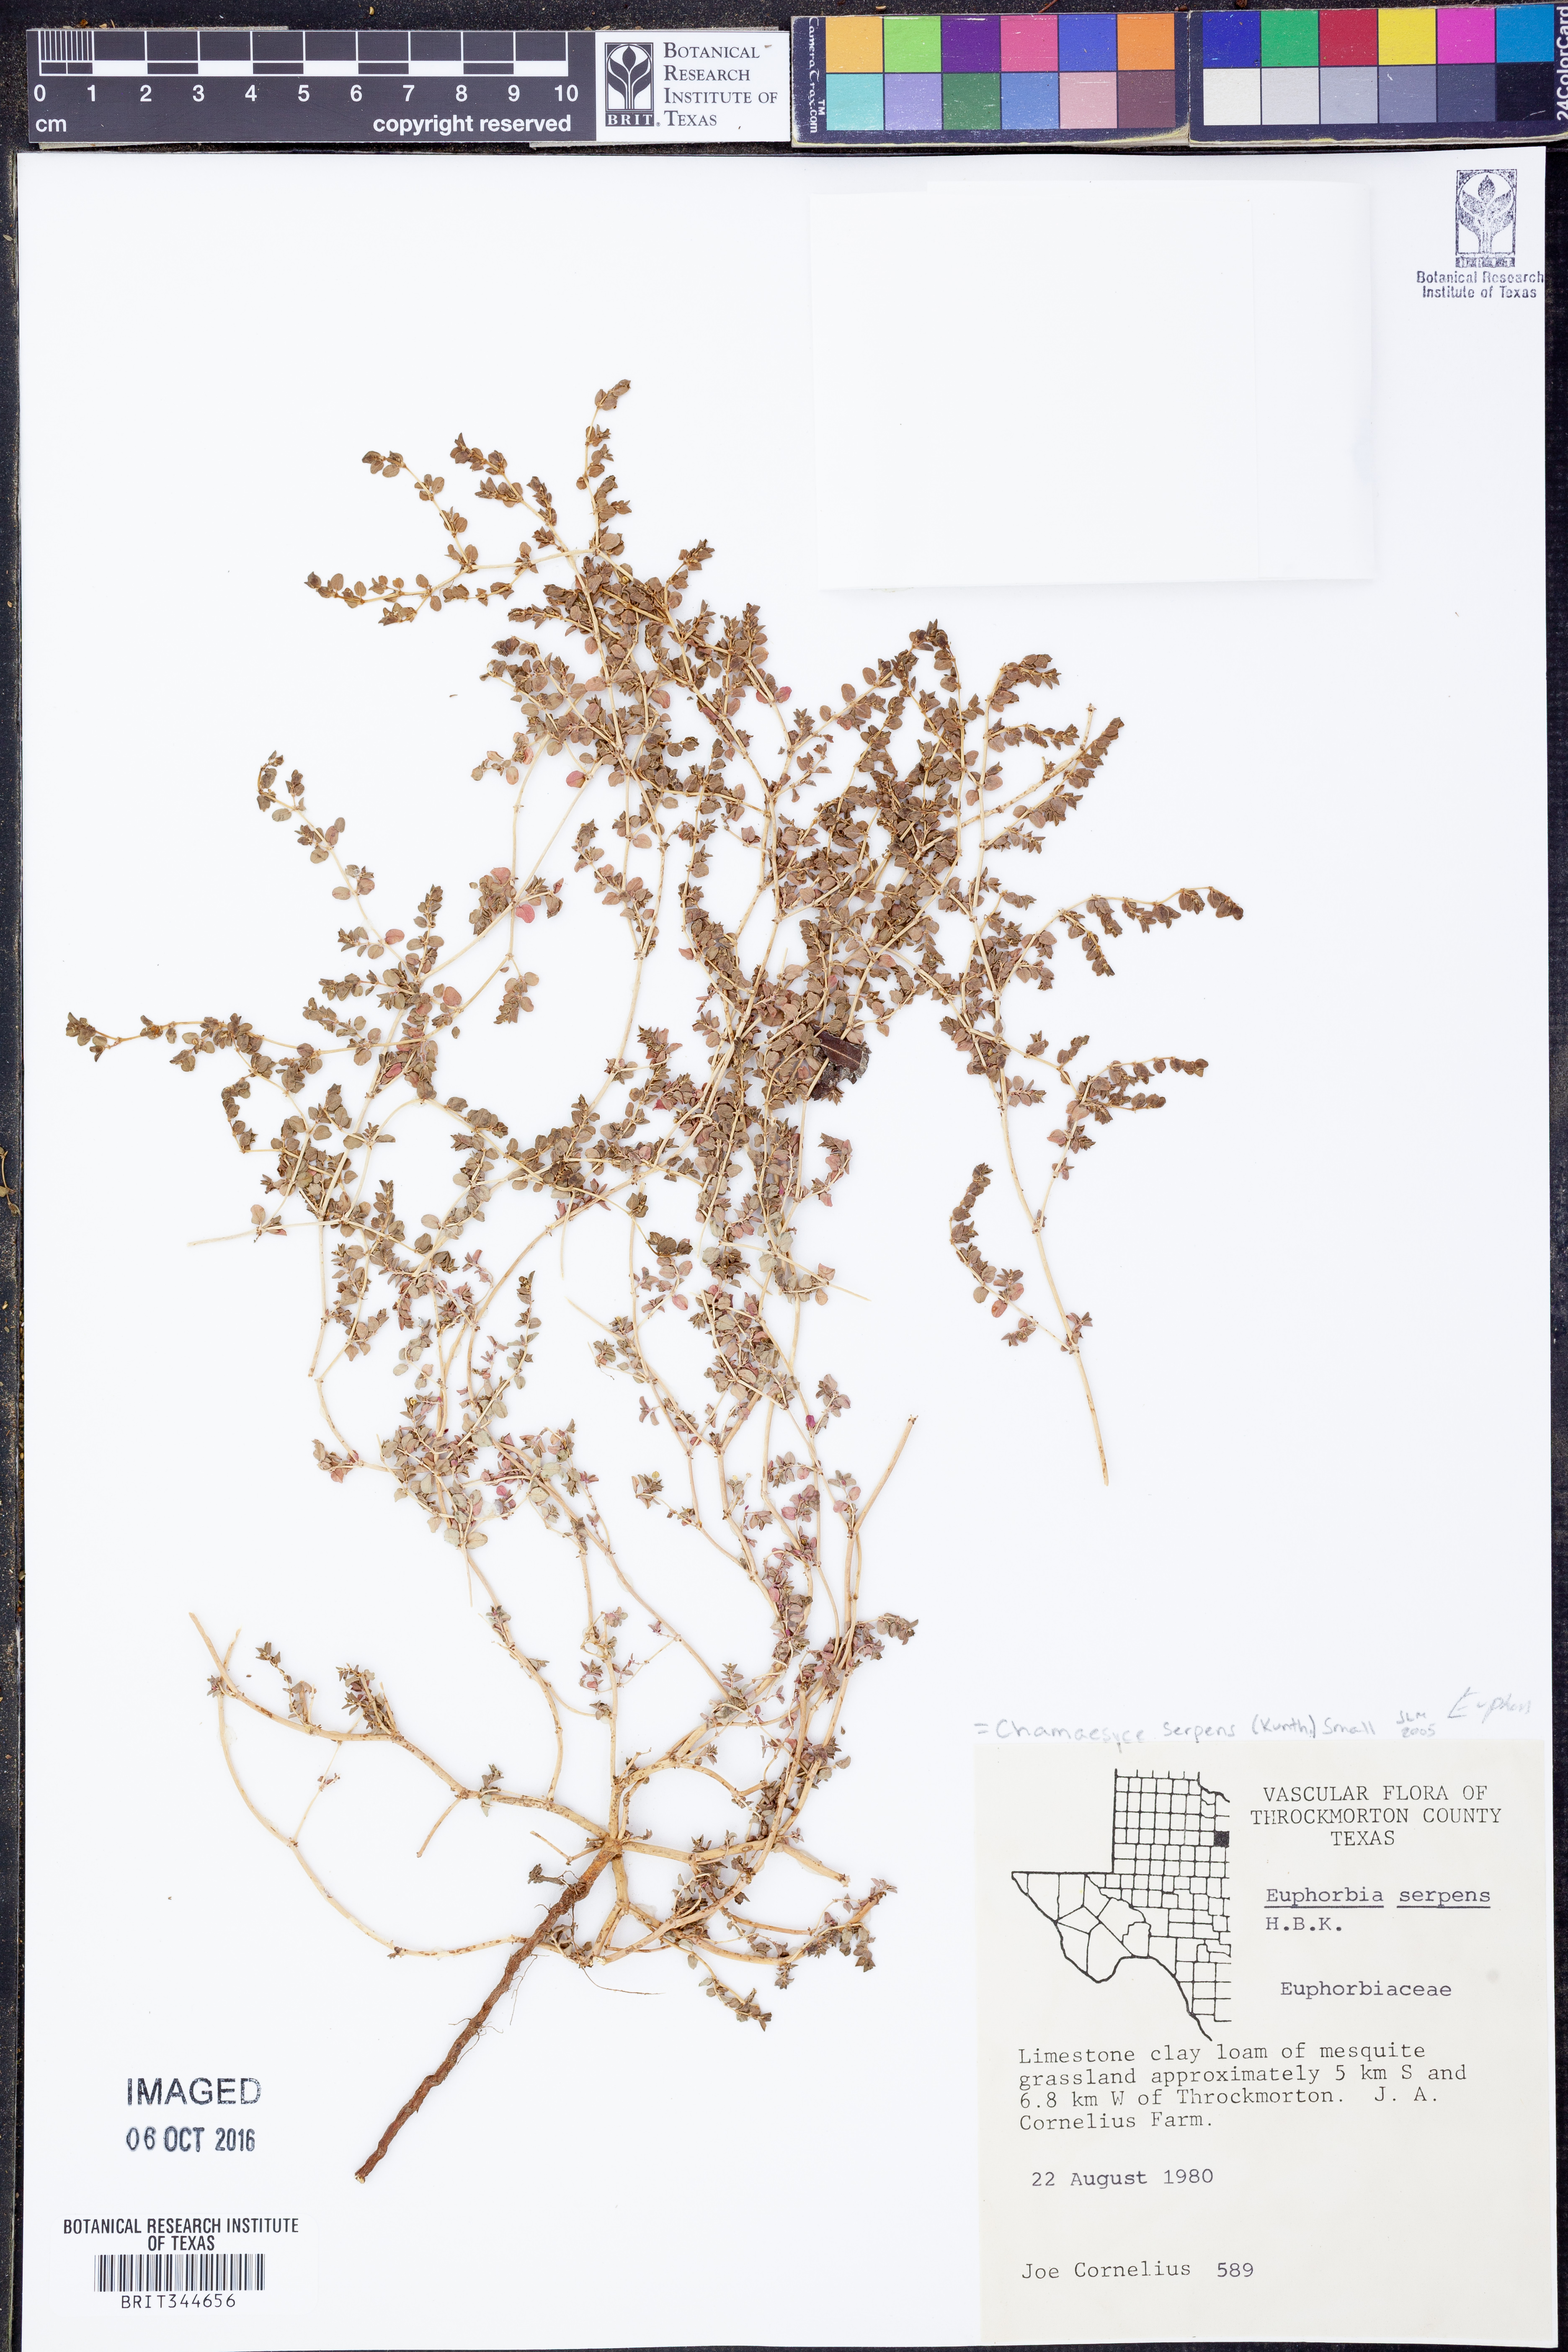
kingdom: Plantae
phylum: Tracheophyta
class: Magnoliopsida
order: Malpighiales
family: Euphorbiaceae
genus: Euphorbia
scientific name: Euphorbia serpens
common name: Matted sandmat
